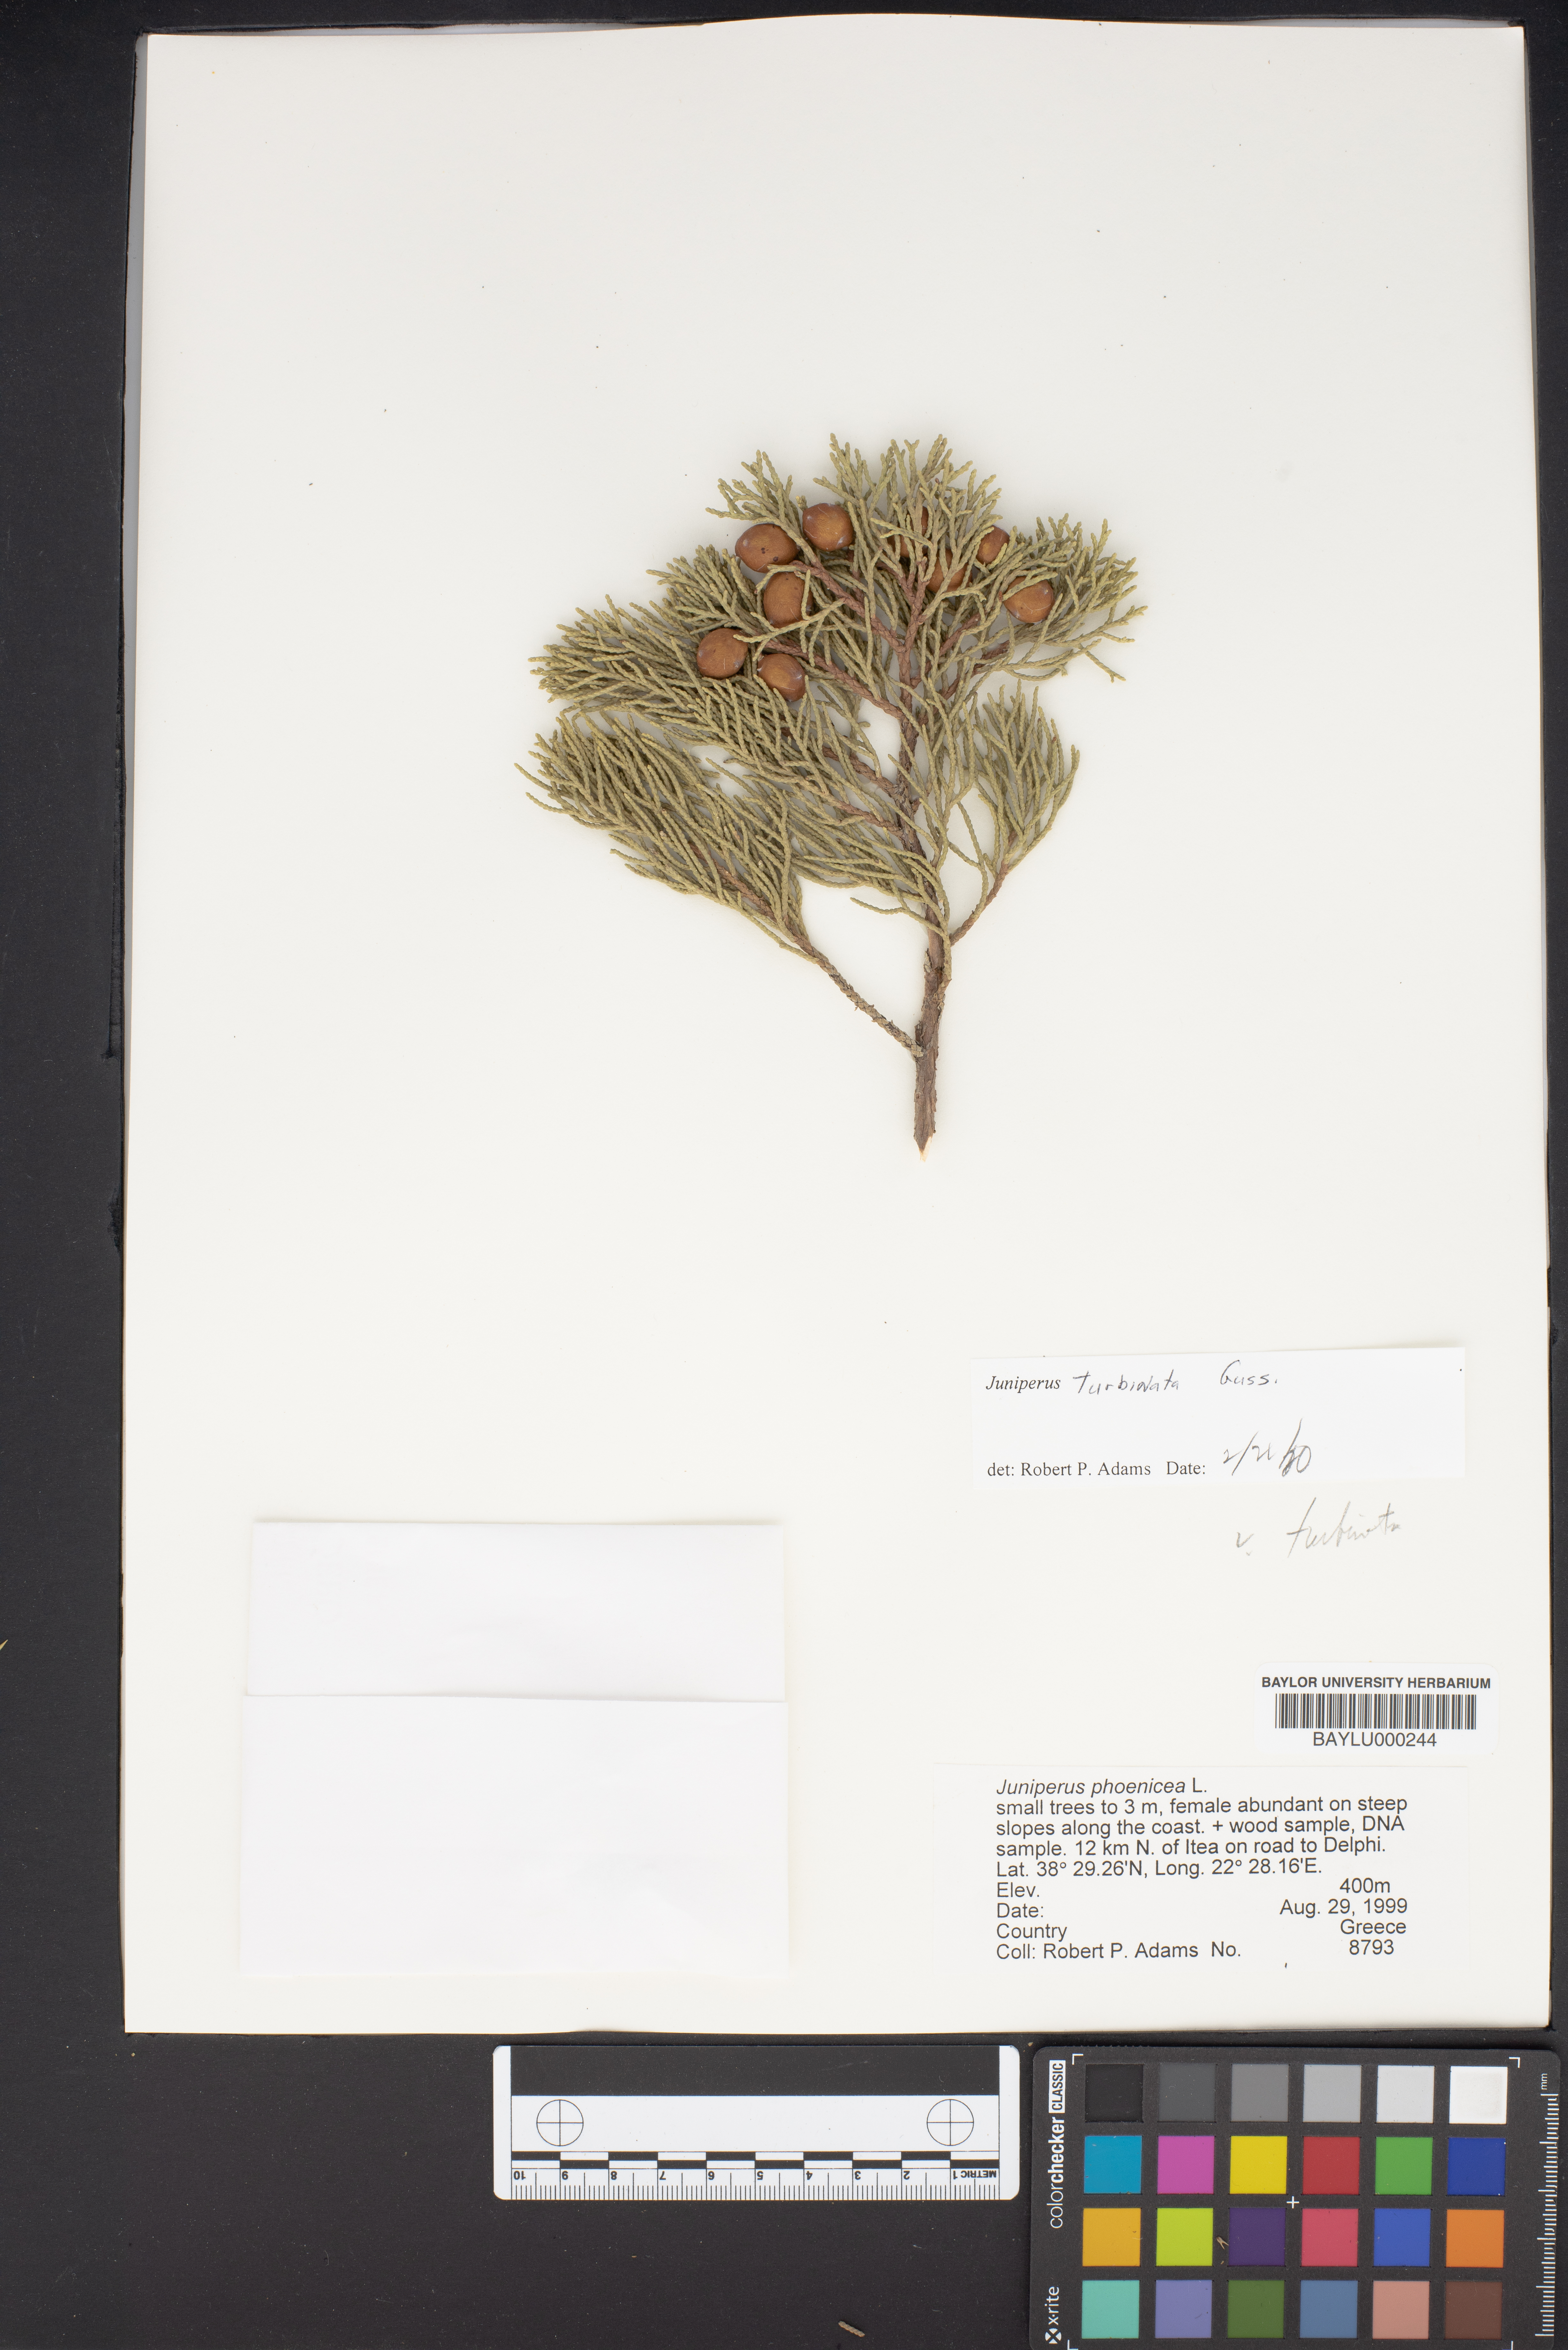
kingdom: Plantae
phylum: Tracheophyta
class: Pinopsida
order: Pinales
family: Cupressaceae
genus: Juniperus
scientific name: Juniperus phoenicea
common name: Phoenician juniper
